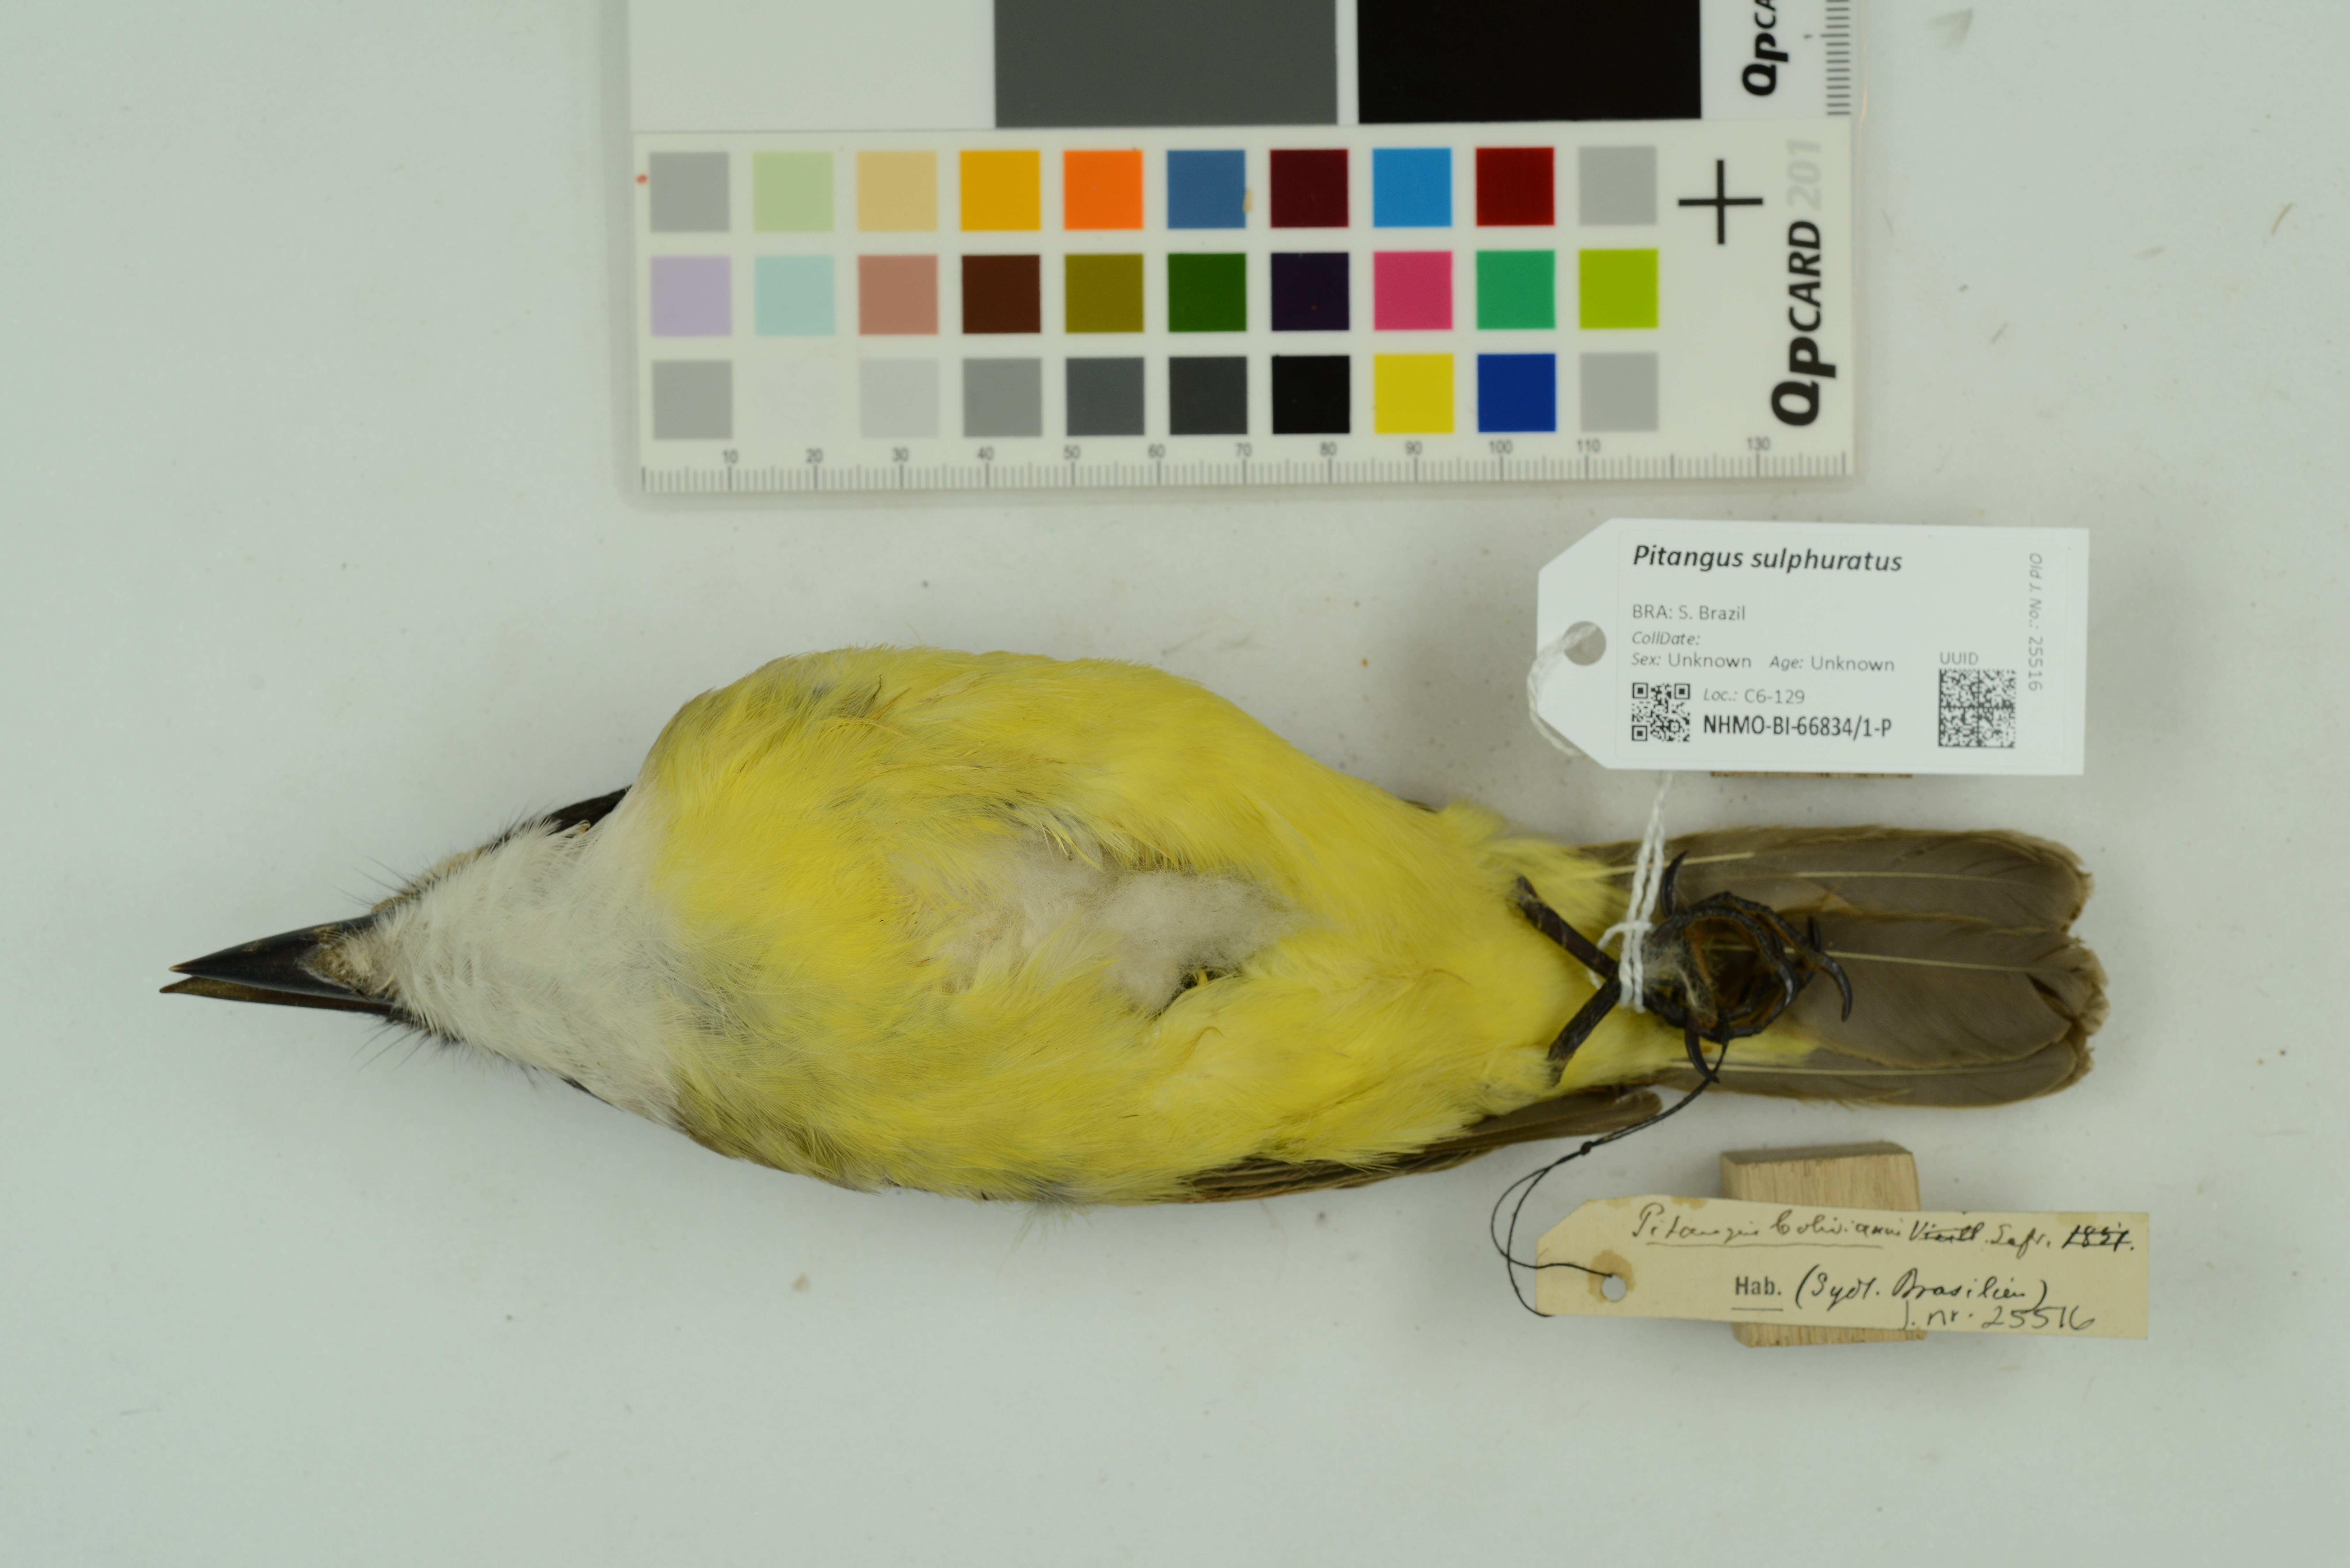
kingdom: Animalia
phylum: Chordata
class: Aves
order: Passeriformes
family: Tyrannidae
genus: Pitangus
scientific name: Pitangus sulphuratus
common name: Great kiskadee
